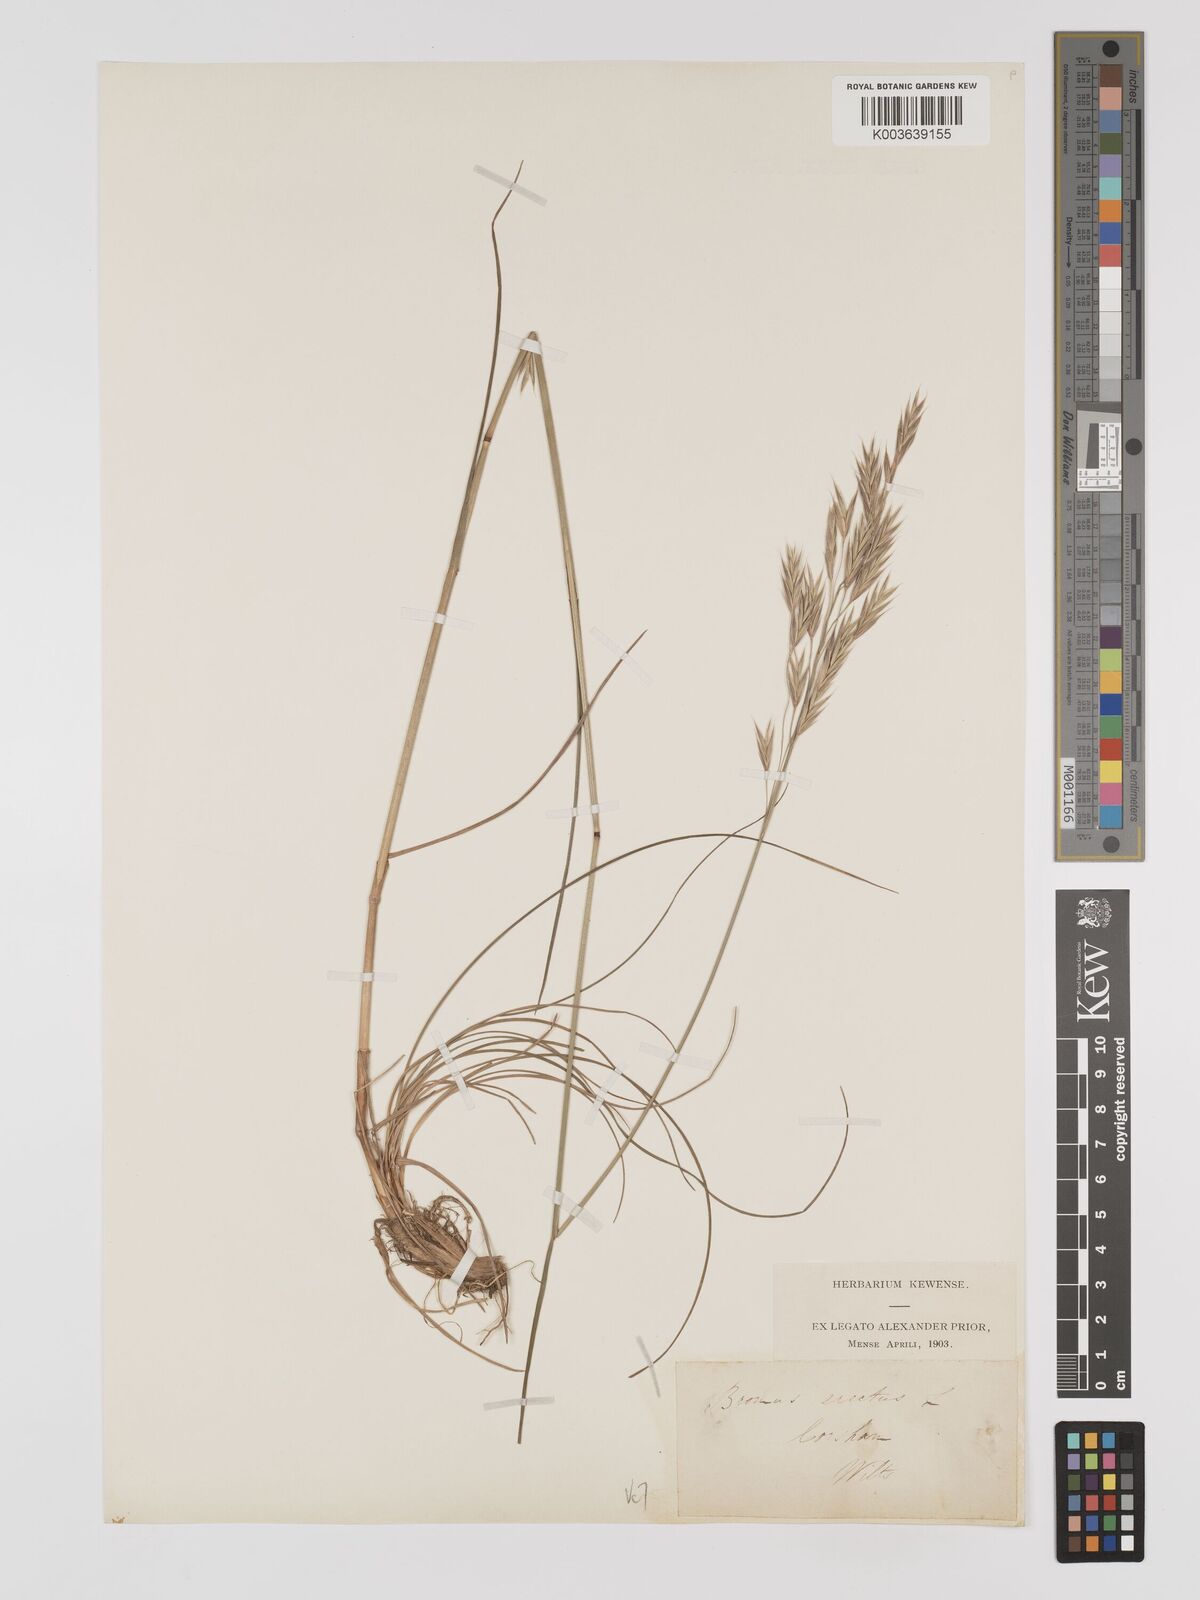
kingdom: Plantae
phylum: Tracheophyta
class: Liliopsida
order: Poales
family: Poaceae
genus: Bromus
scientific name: Bromus erectus
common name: Erect brome
